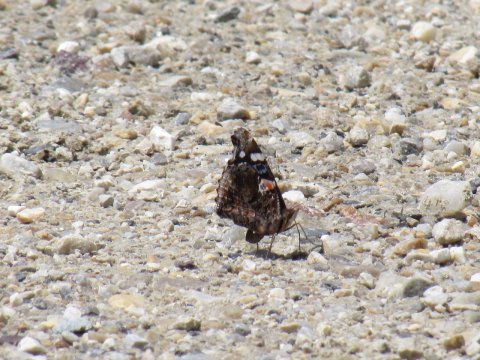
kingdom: Animalia
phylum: Arthropoda
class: Insecta
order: Lepidoptera
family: Nymphalidae
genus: Vanessa
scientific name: Vanessa atalanta
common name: Red Admiral
